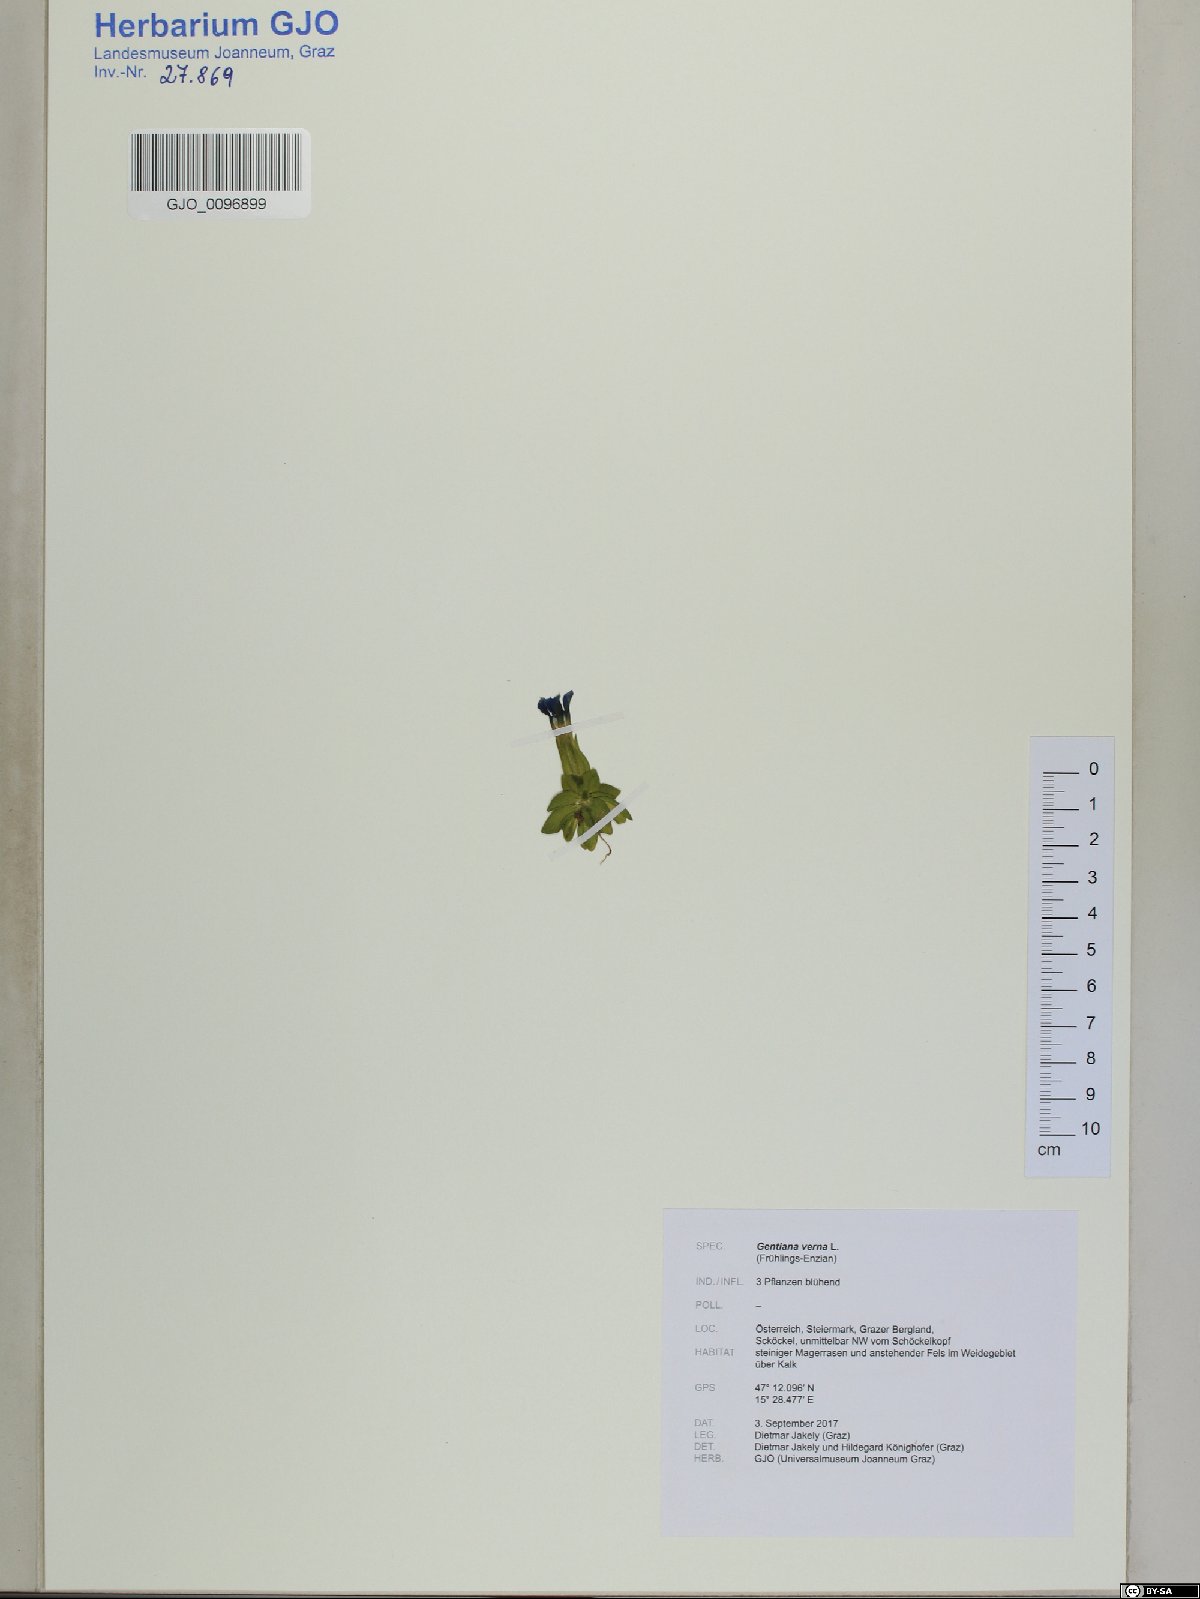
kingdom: Plantae
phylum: Tracheophyta
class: Magnoliopsida
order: Gentianales
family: Gentianaceae
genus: Gentiana
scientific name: Gentiana verna
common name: Spring gentian
